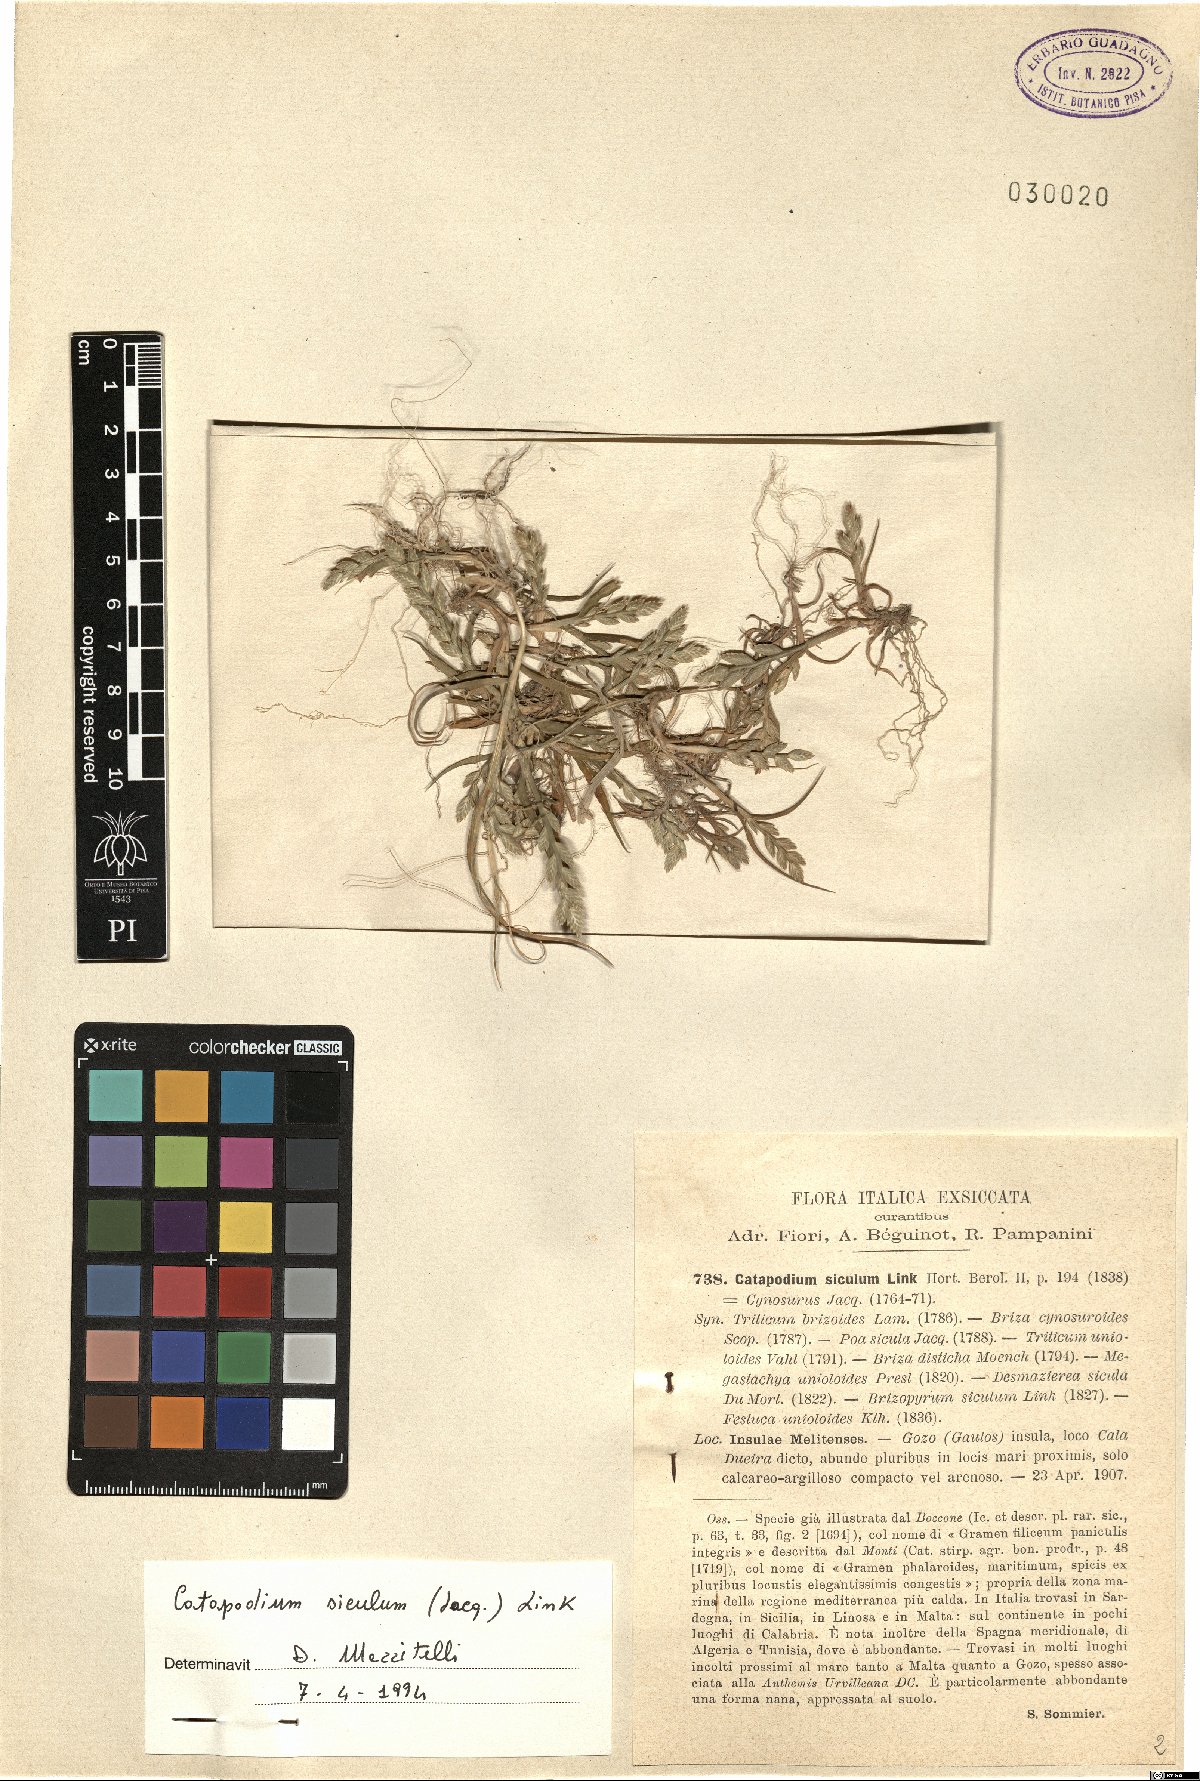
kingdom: Plantae
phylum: Tracheophyta
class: Liliopsida
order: Poales
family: Poaceae
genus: Desmazeria
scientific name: Desmazeria sicula
